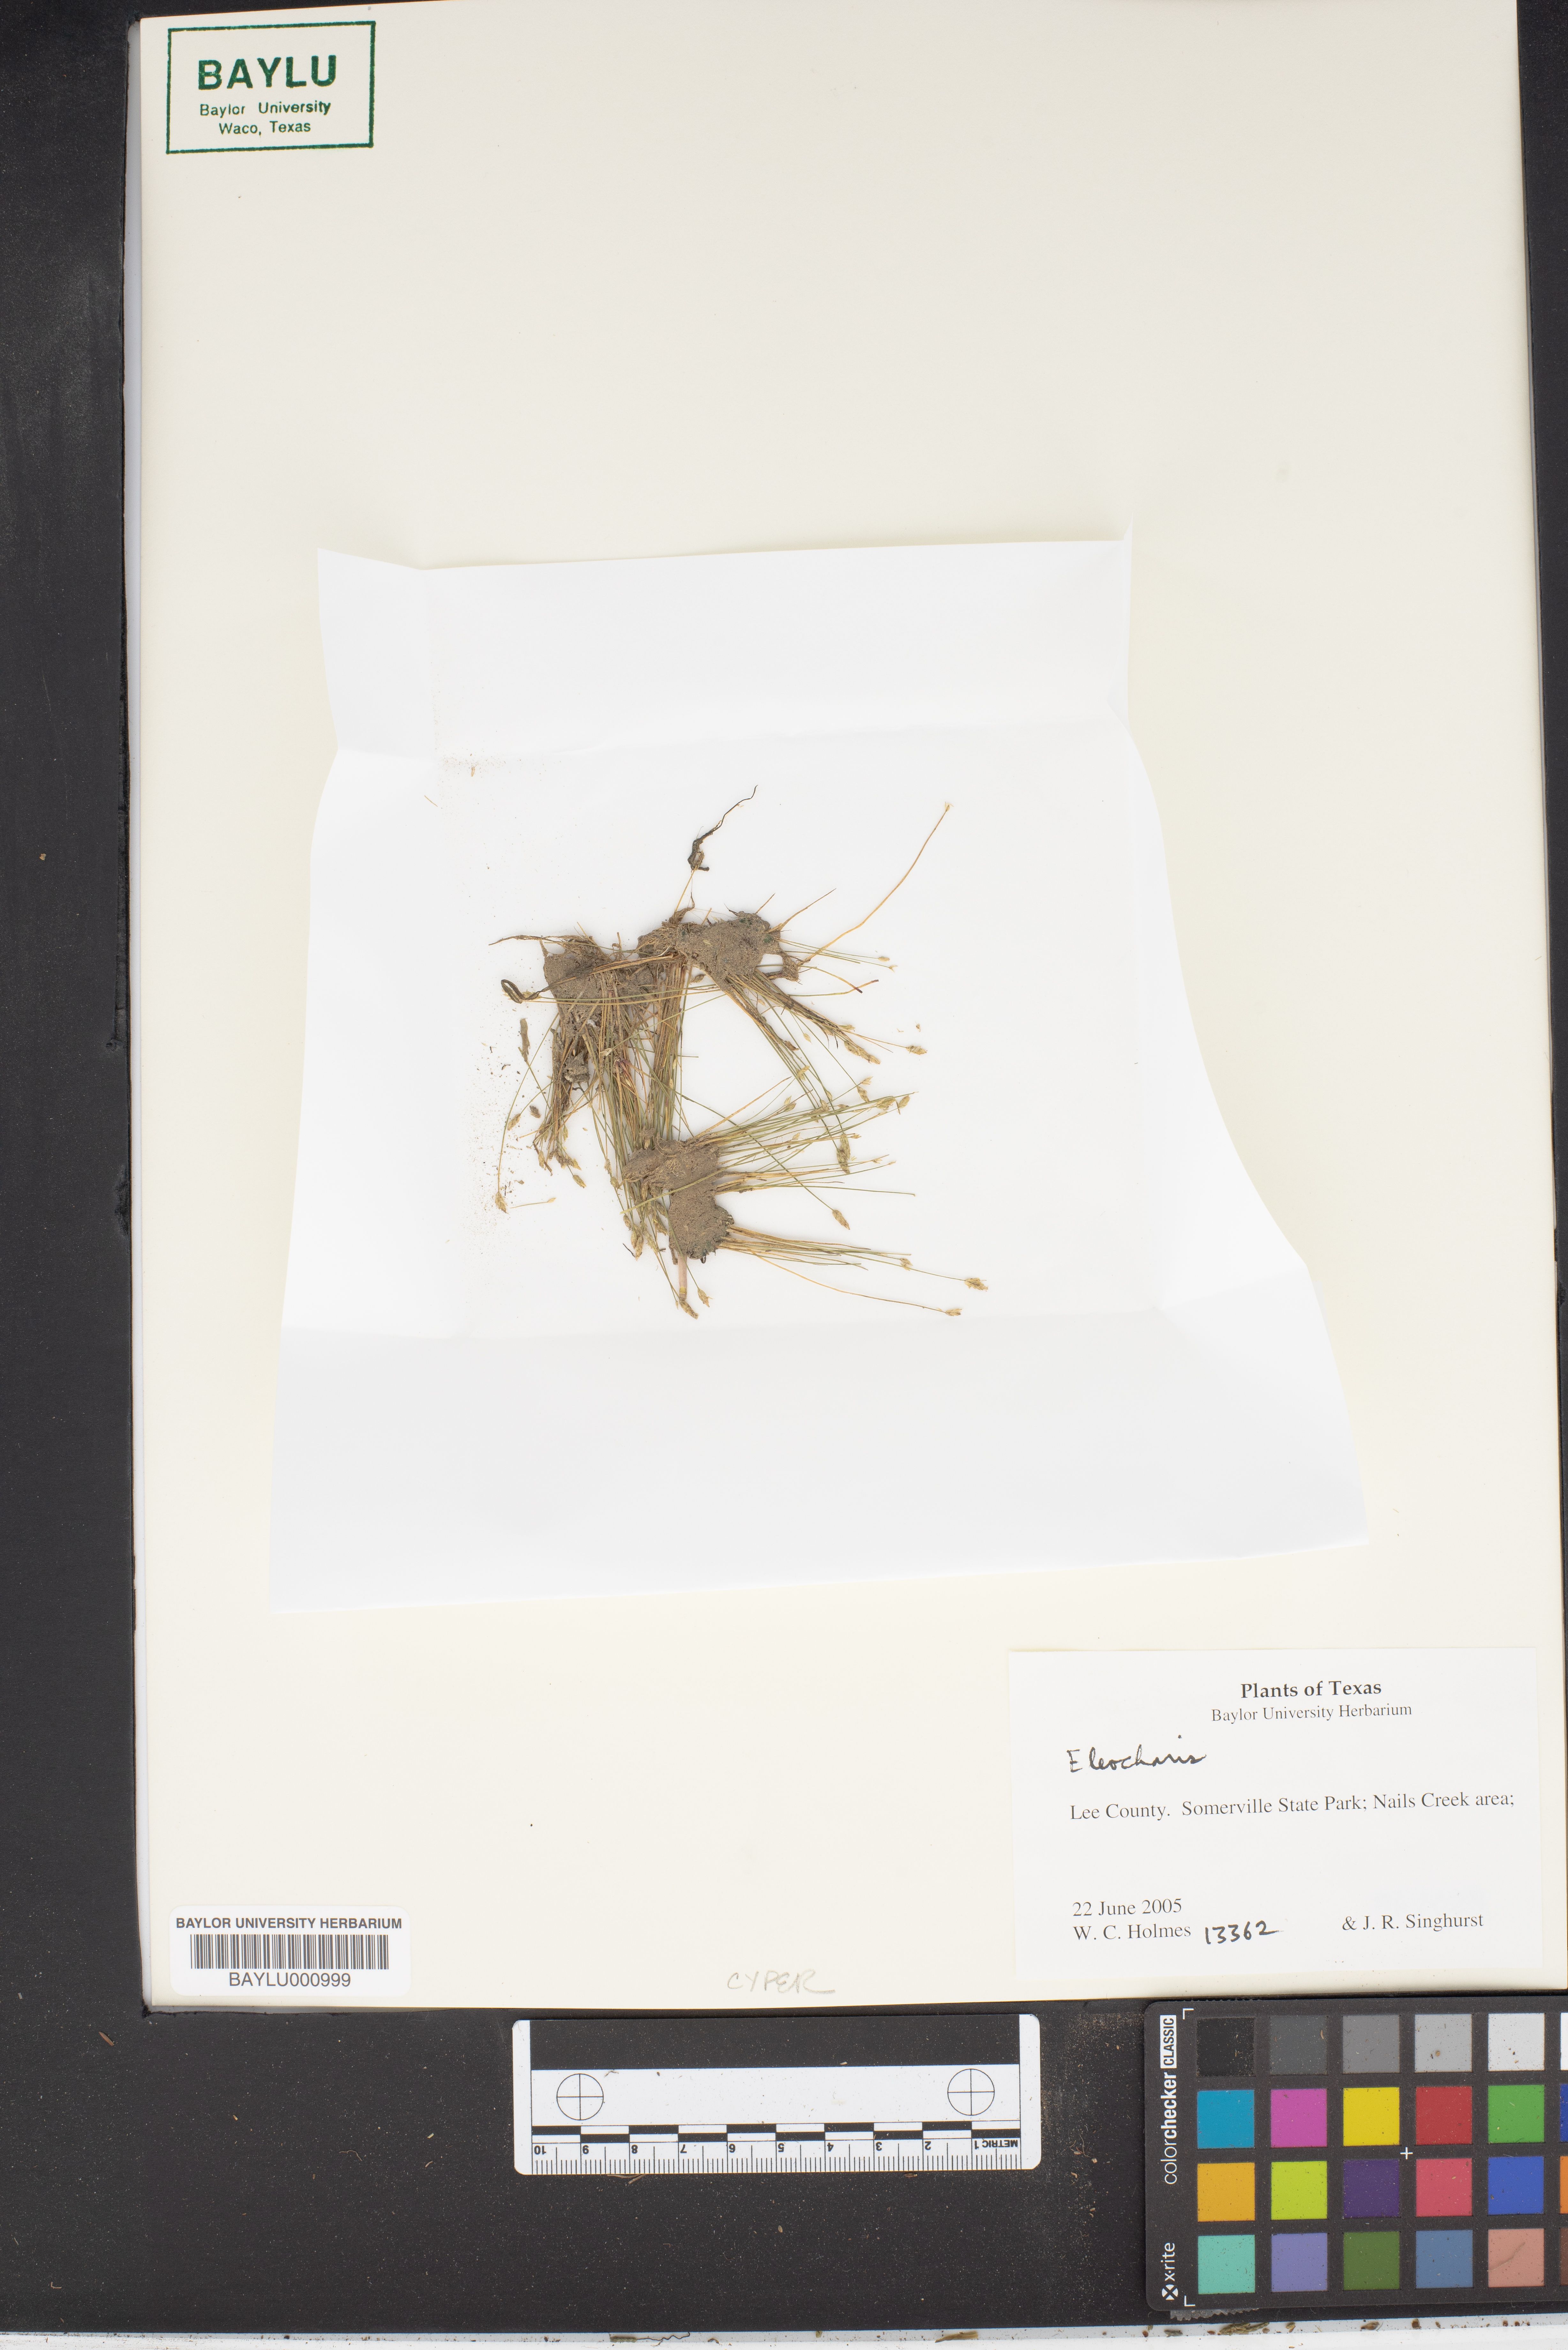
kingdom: Plantae
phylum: Tracheophyta
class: Liliopsida
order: Poales
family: Cyperaceae
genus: Eleocharis
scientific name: Eleocharis
